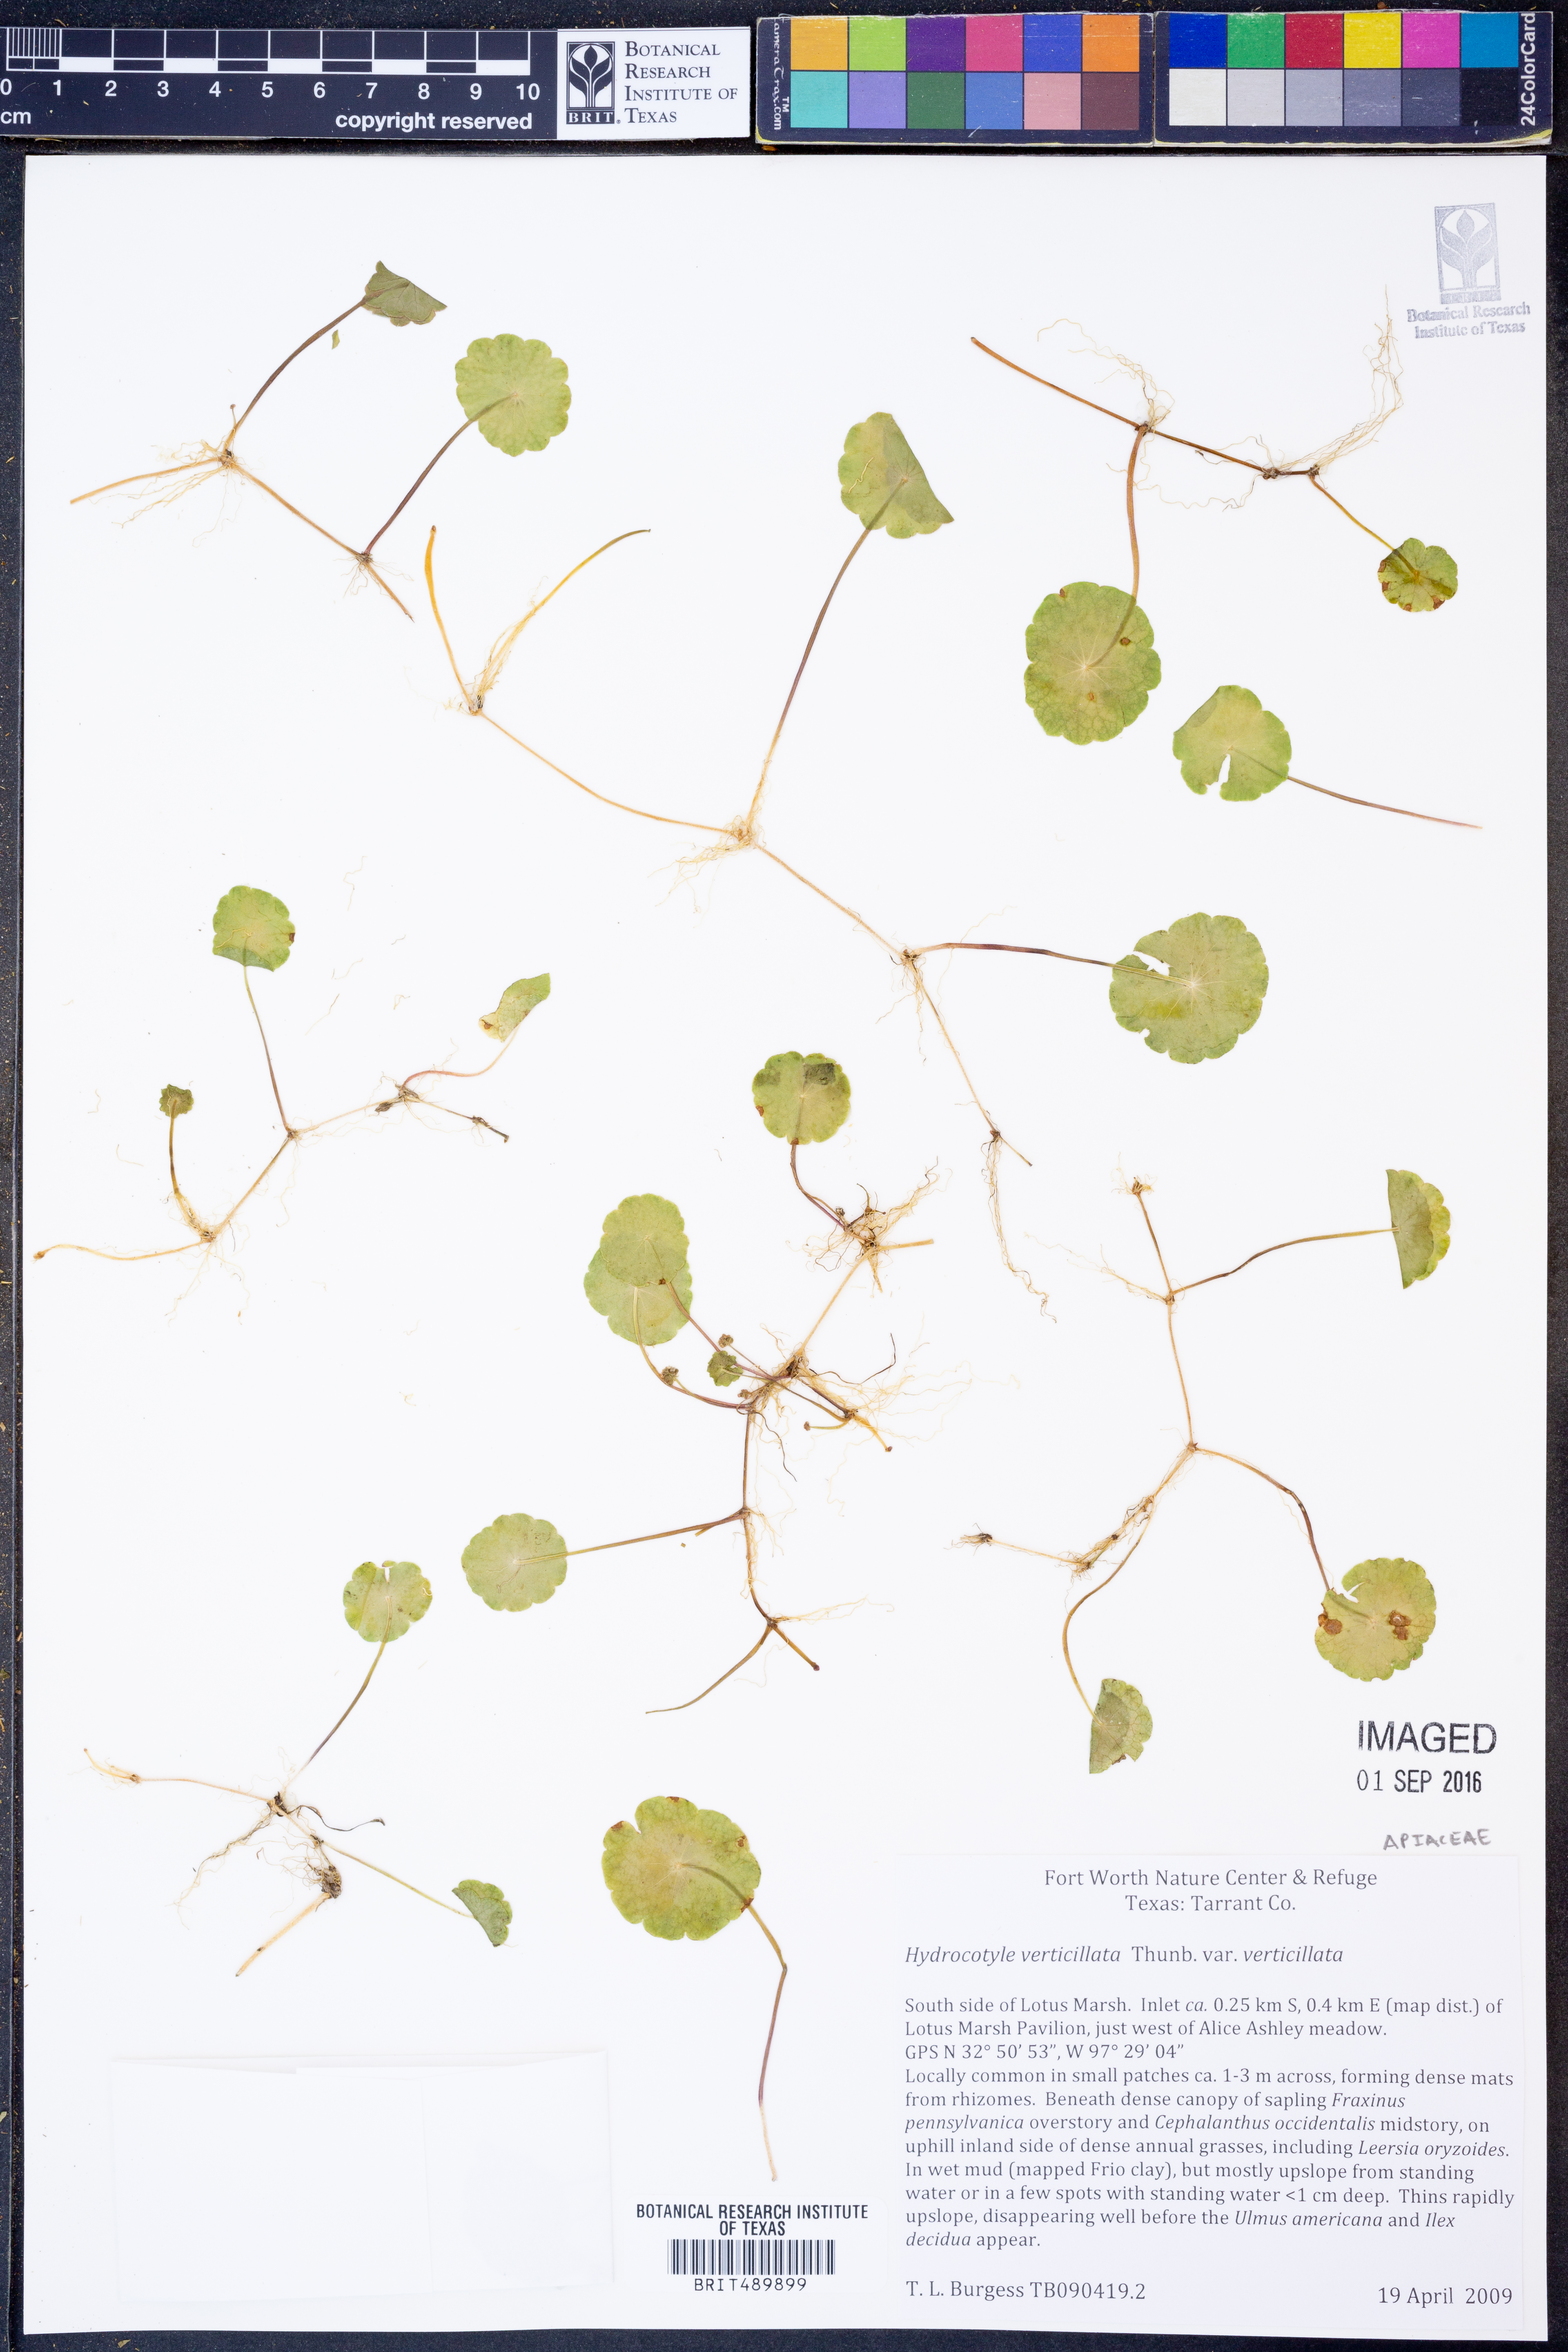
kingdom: Plantae
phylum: Tracheophyta
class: Magnoliopsida
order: Apiales
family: Araliaceae
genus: Hydrocotyle
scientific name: Hydrocotyle verticillata
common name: Whorled marshpennywort
